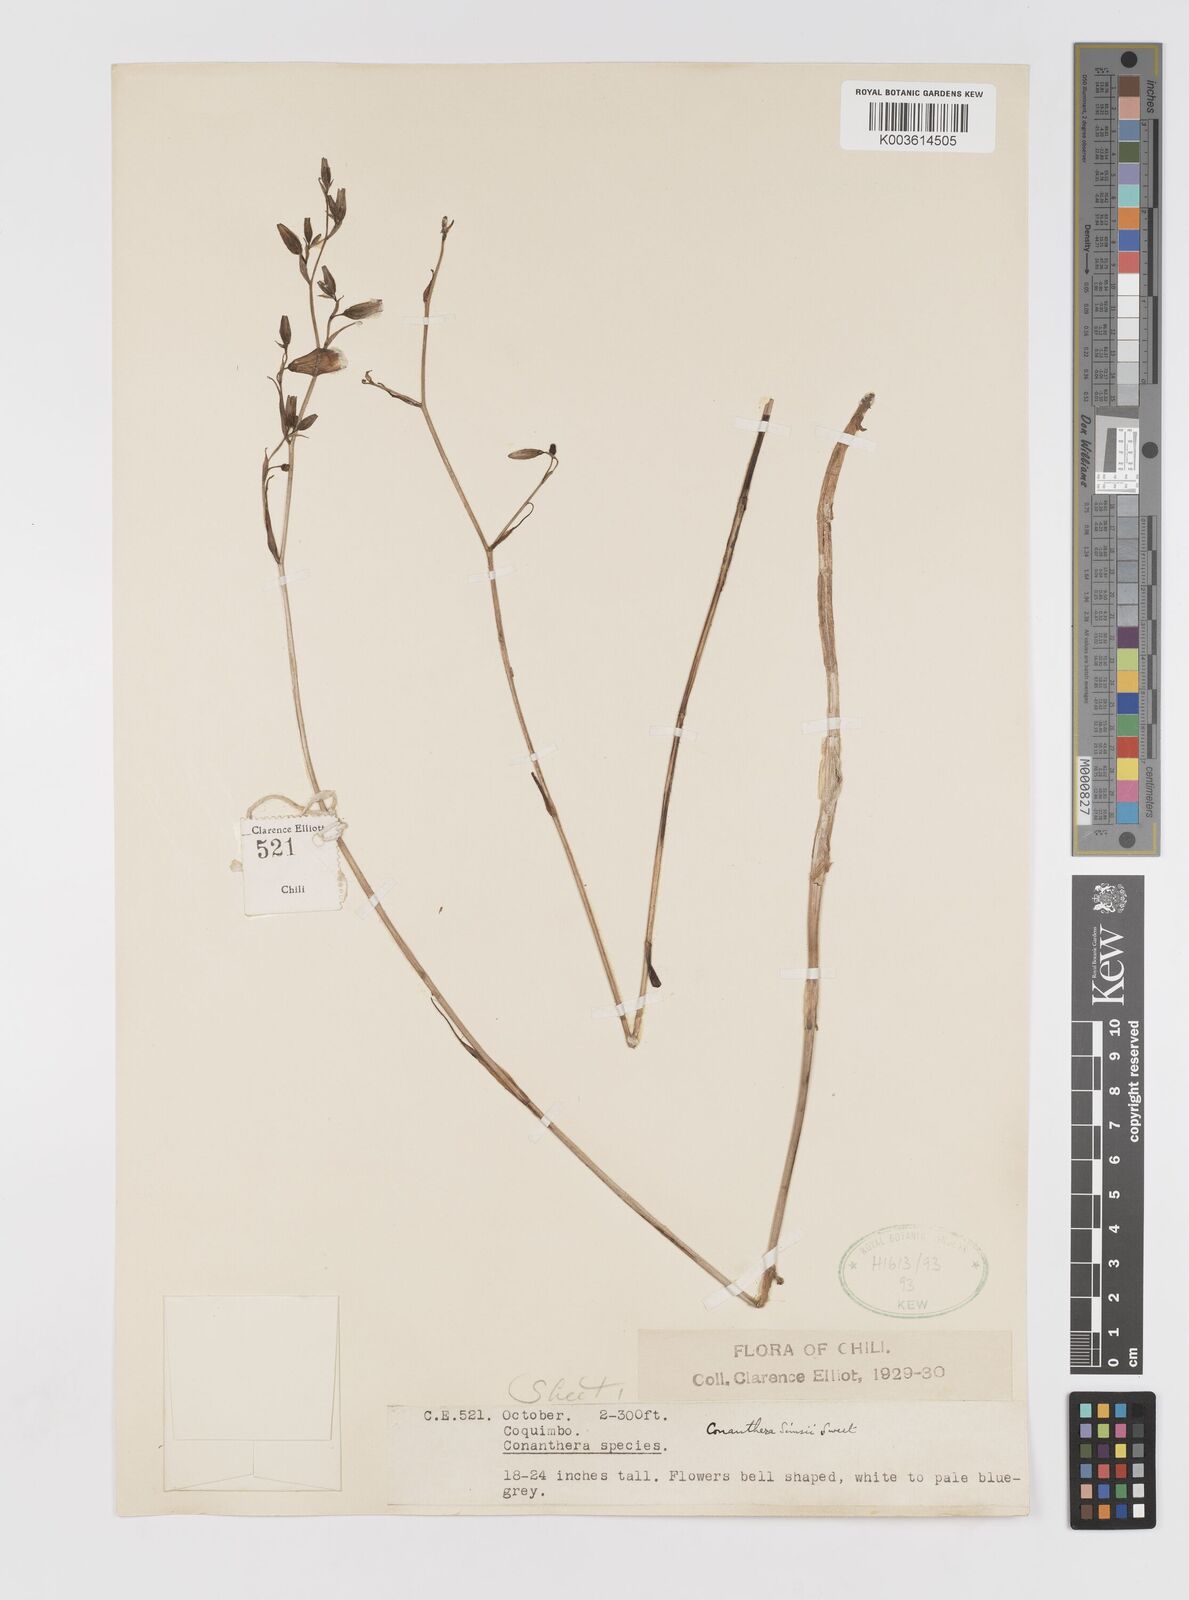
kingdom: Plantae
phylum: Tracheophyta
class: Liliopsida
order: Asparagales
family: Tecophilaeaceae
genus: Conanthera
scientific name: Conanthera campanulata
